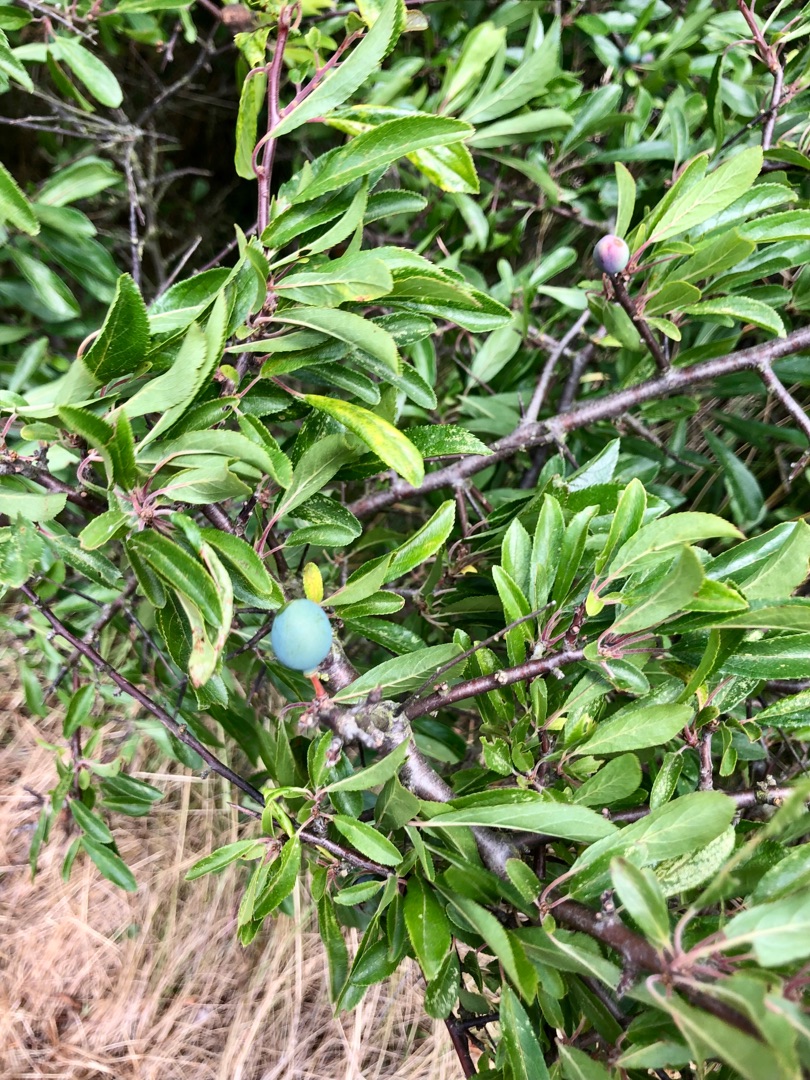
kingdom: Plantae
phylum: Tracheophyta
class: Magnoliopsida
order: Rosales
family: Rosaceae
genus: Prunus
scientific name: Prunus spinosa
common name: Slåen
